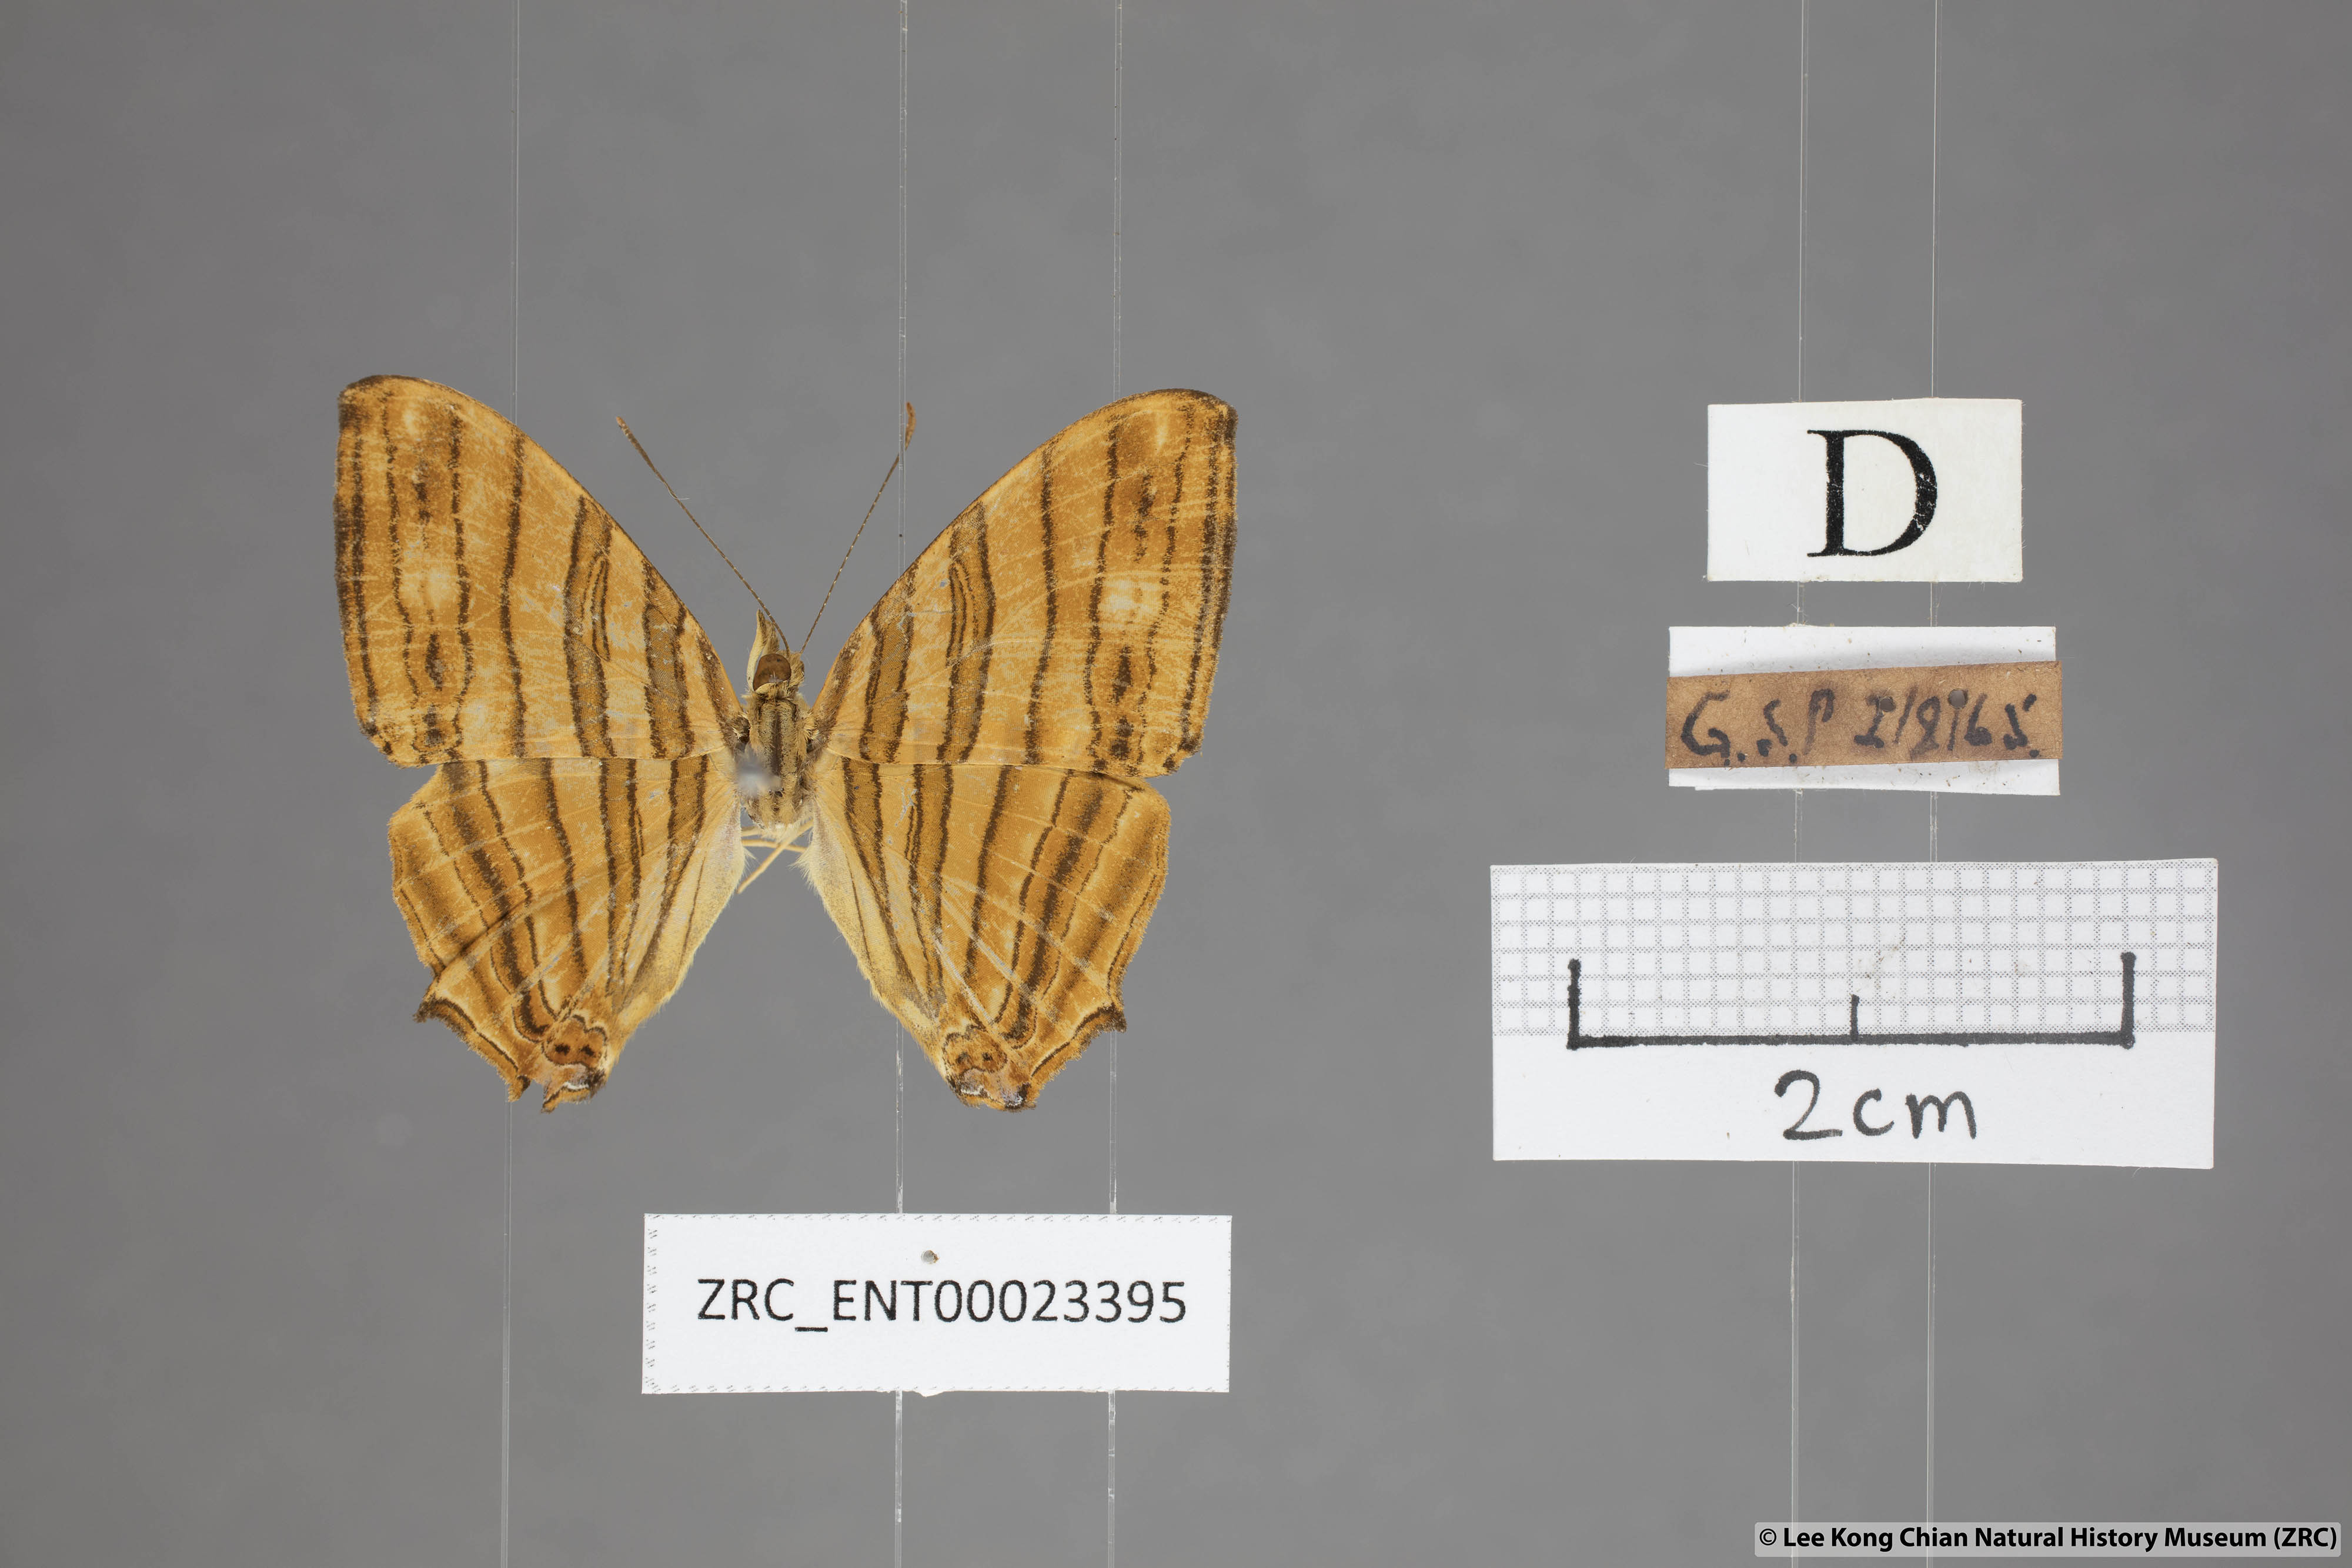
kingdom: Animalia
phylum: Arthropoda
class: Insecta
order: Lepidoptera
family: Nymphalidae
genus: Chersonesia
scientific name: Chersonesia risa
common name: Common maplet
